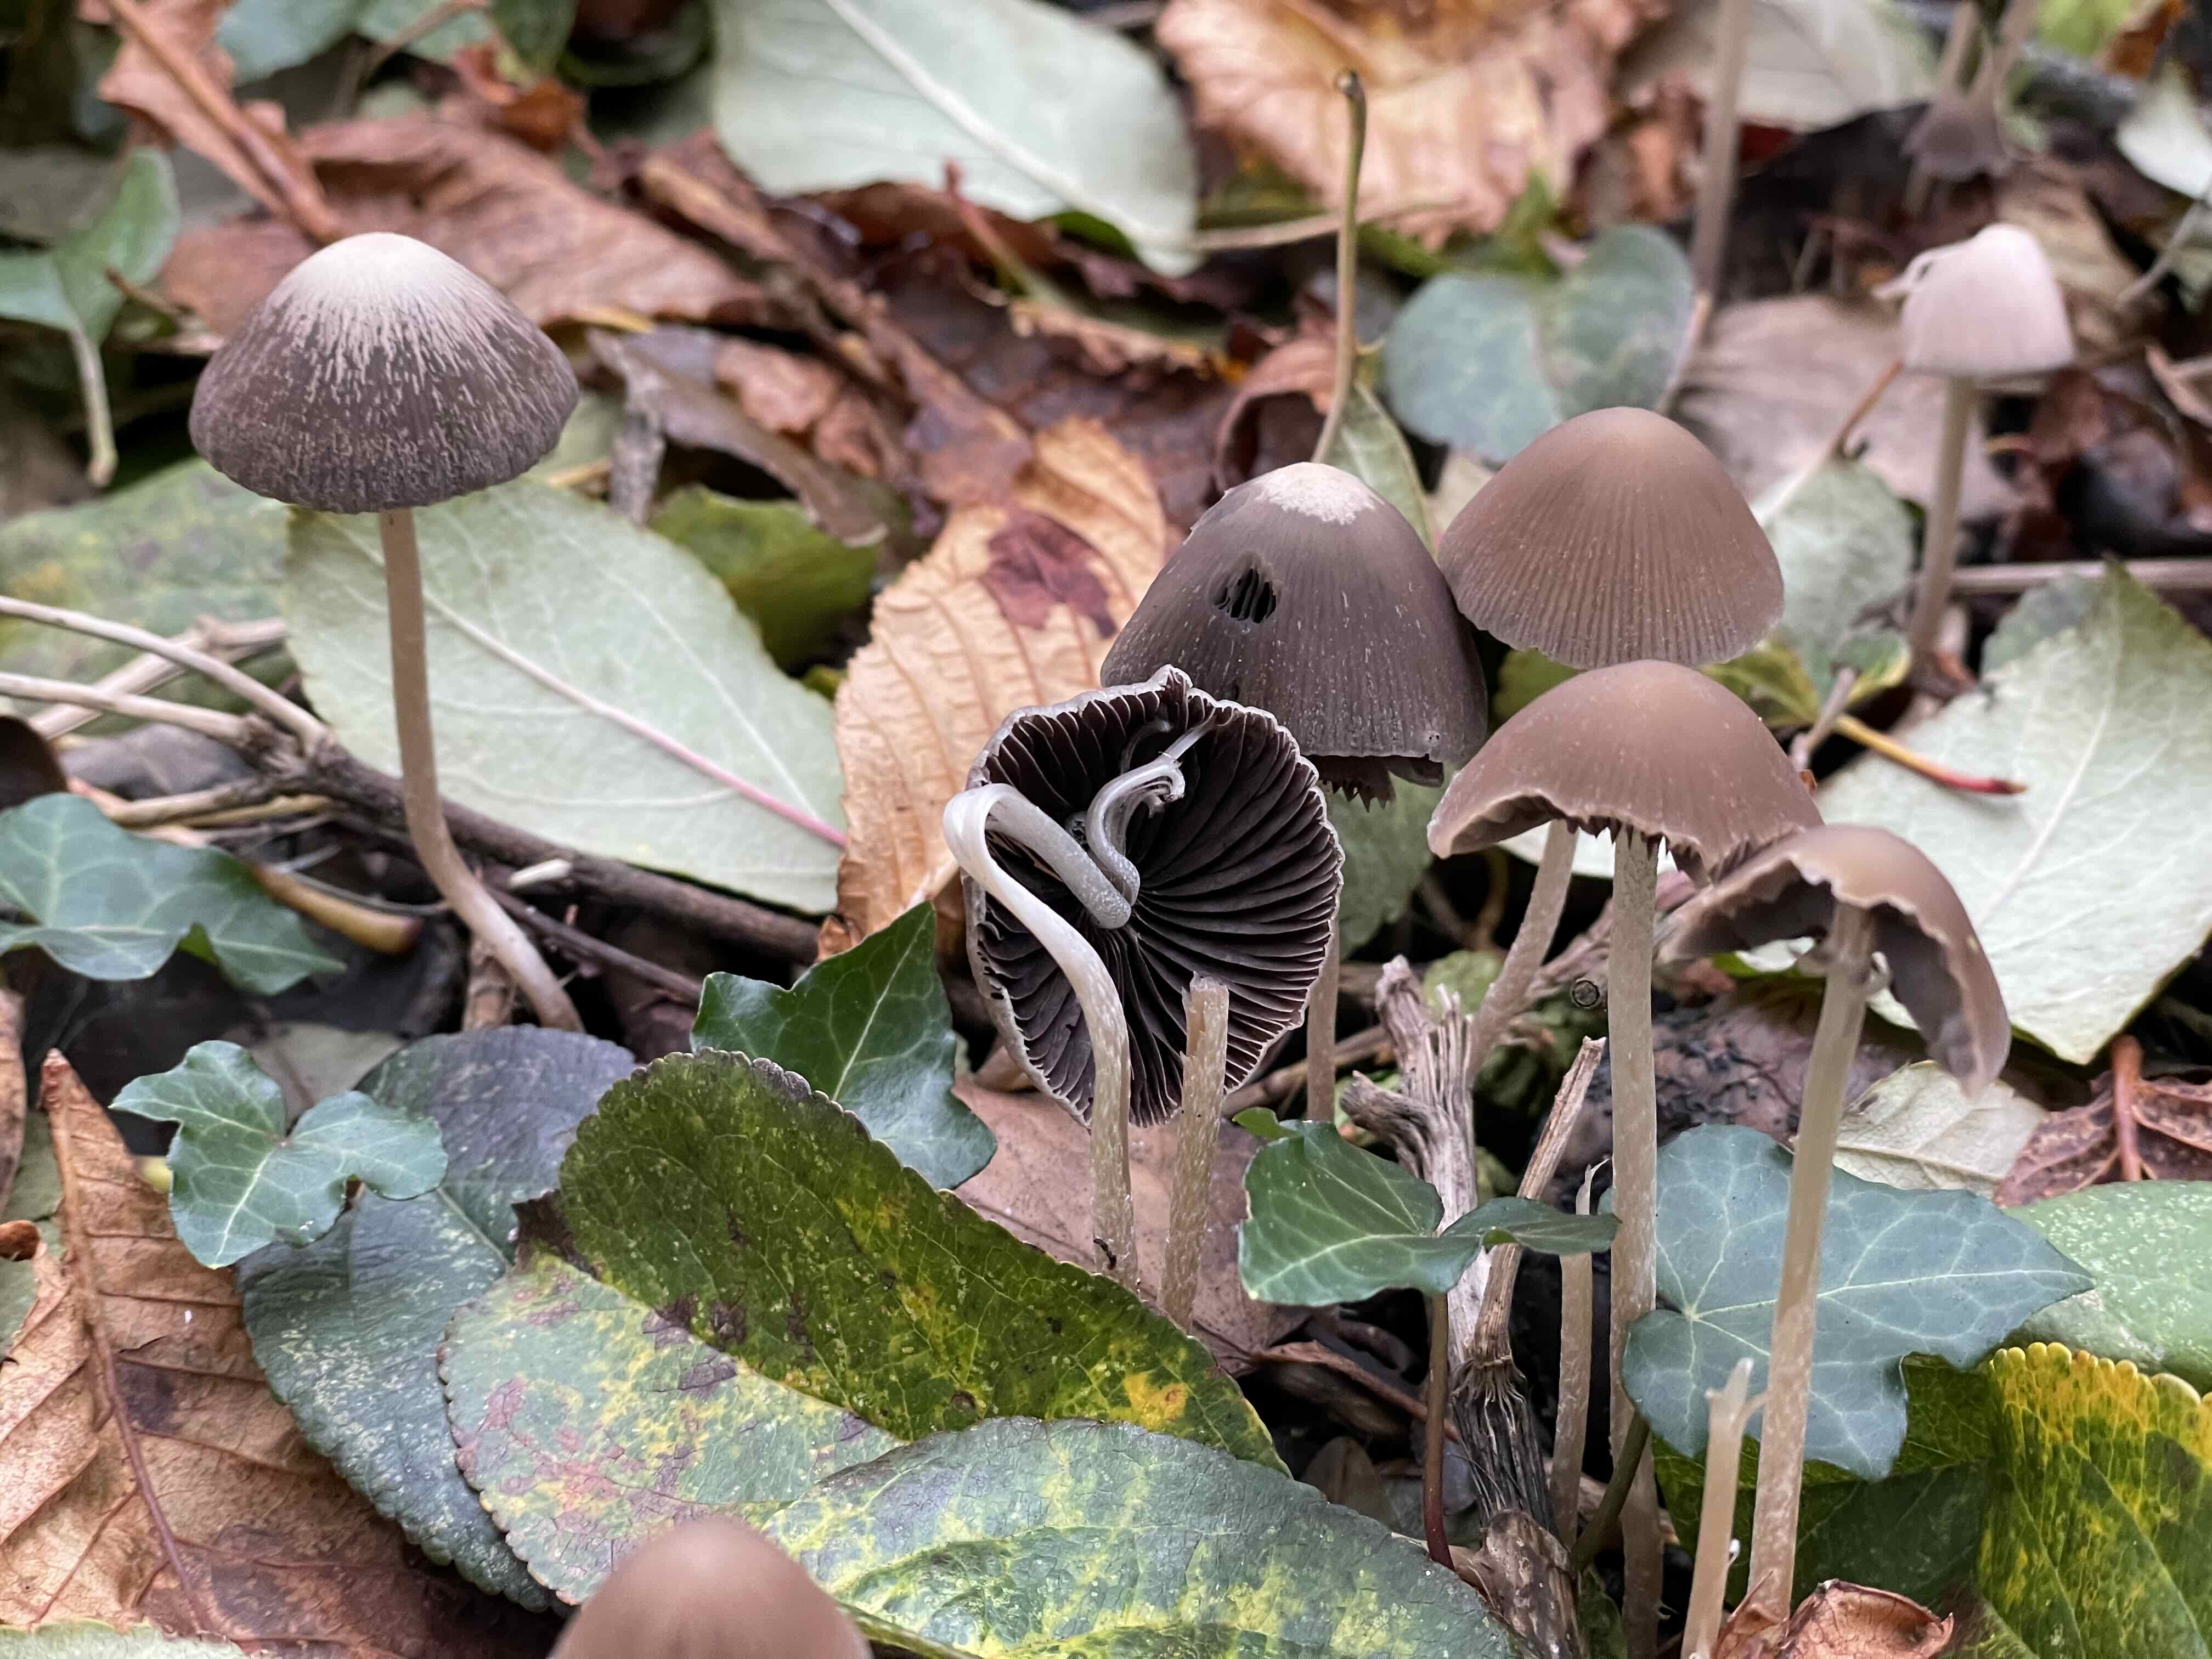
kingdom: Fungi
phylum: Basidiomycota
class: Agaricomycetes
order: Agaricales
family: Psathyrellaceae
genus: Psathyrella
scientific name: Psathyrella
